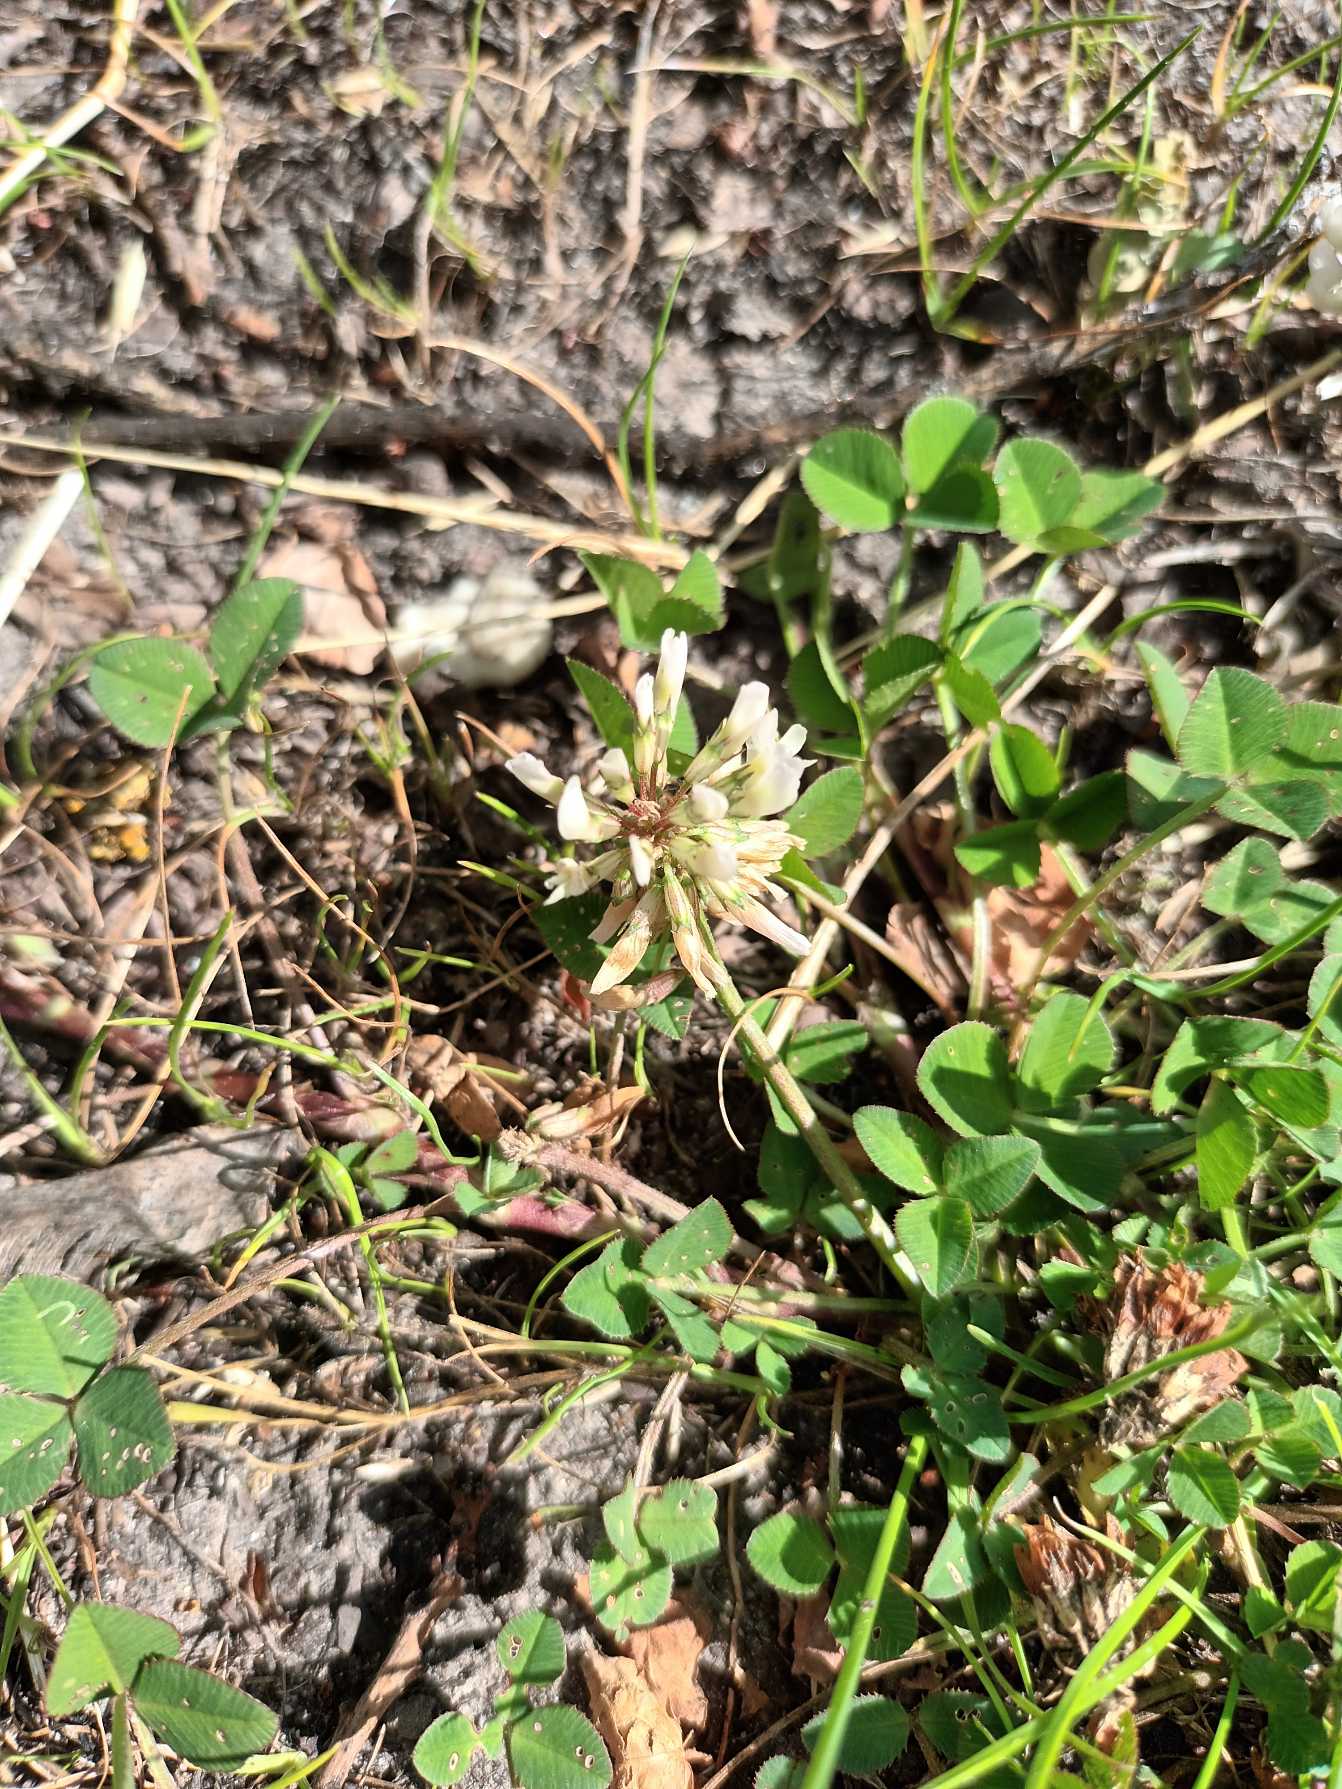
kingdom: Plantae
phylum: Tracheophyta
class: Magnoliopsida
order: Fabales
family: Fabaceae
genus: Trifolium
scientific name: Trifolium repens
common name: Hvid-kløver
